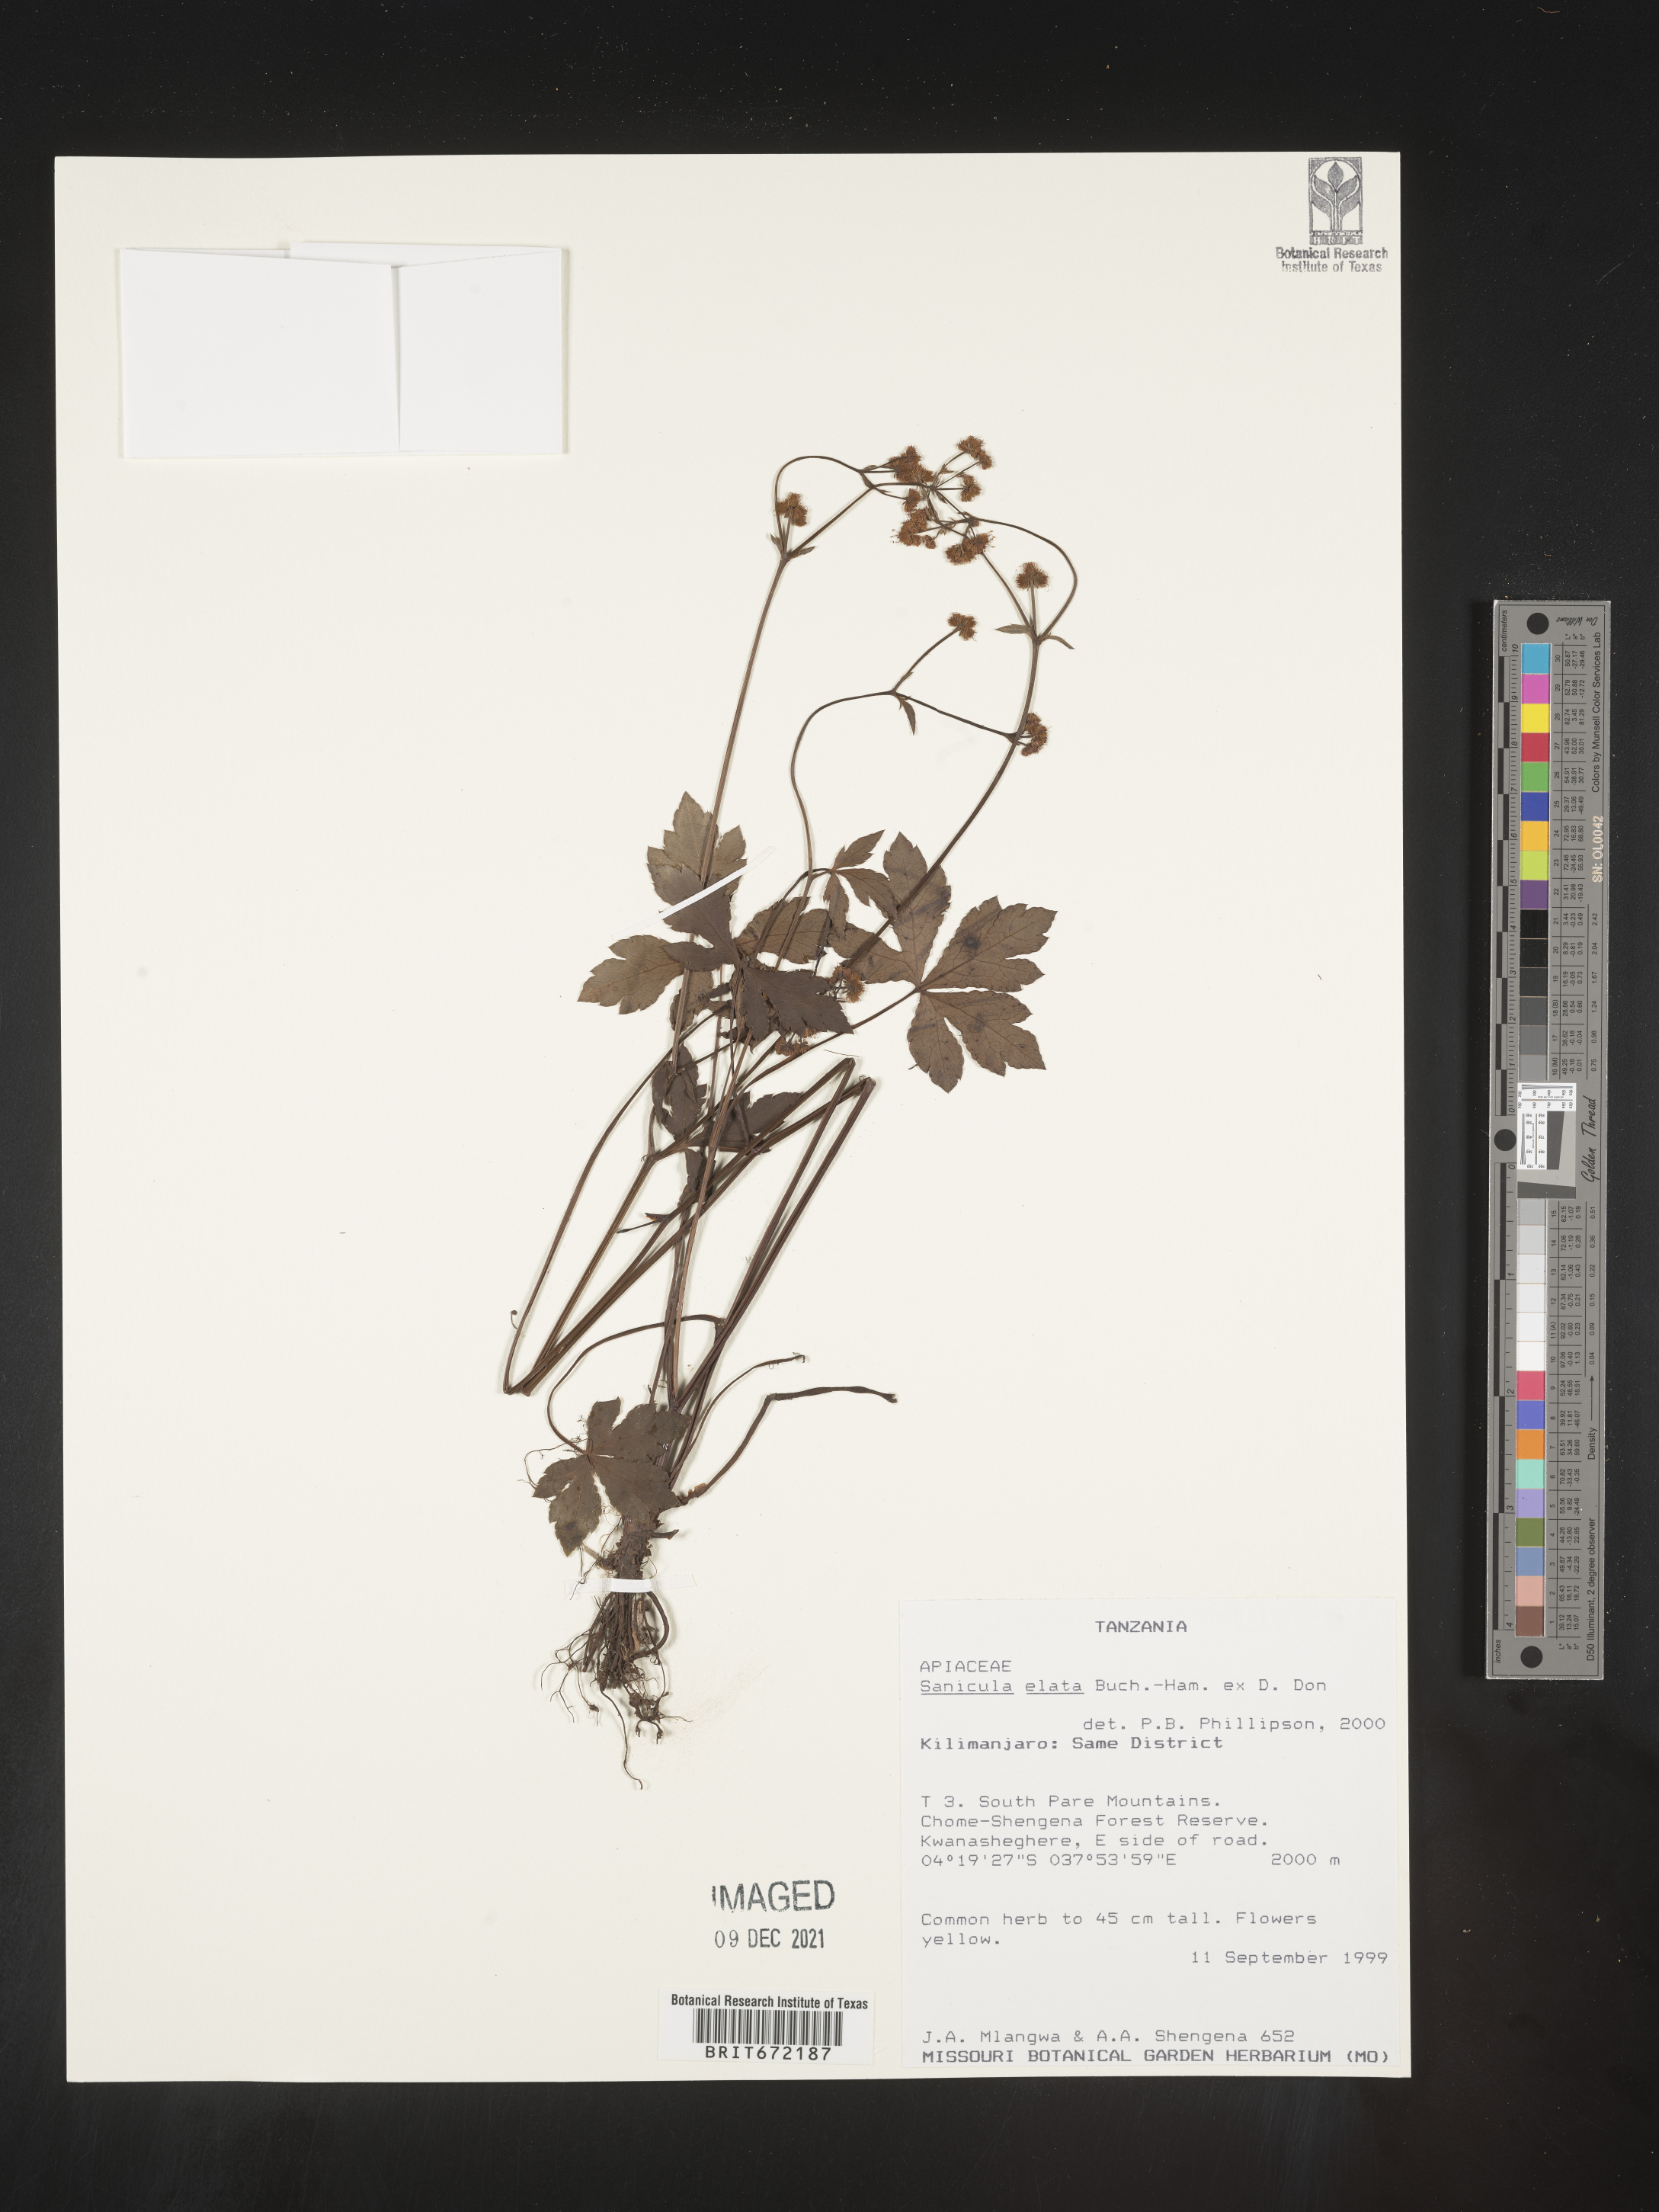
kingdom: Plantae
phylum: Tracheophyta
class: Magnoliopsida
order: Apiales
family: Apiaceae
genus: Sanicula
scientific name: Sanicula
